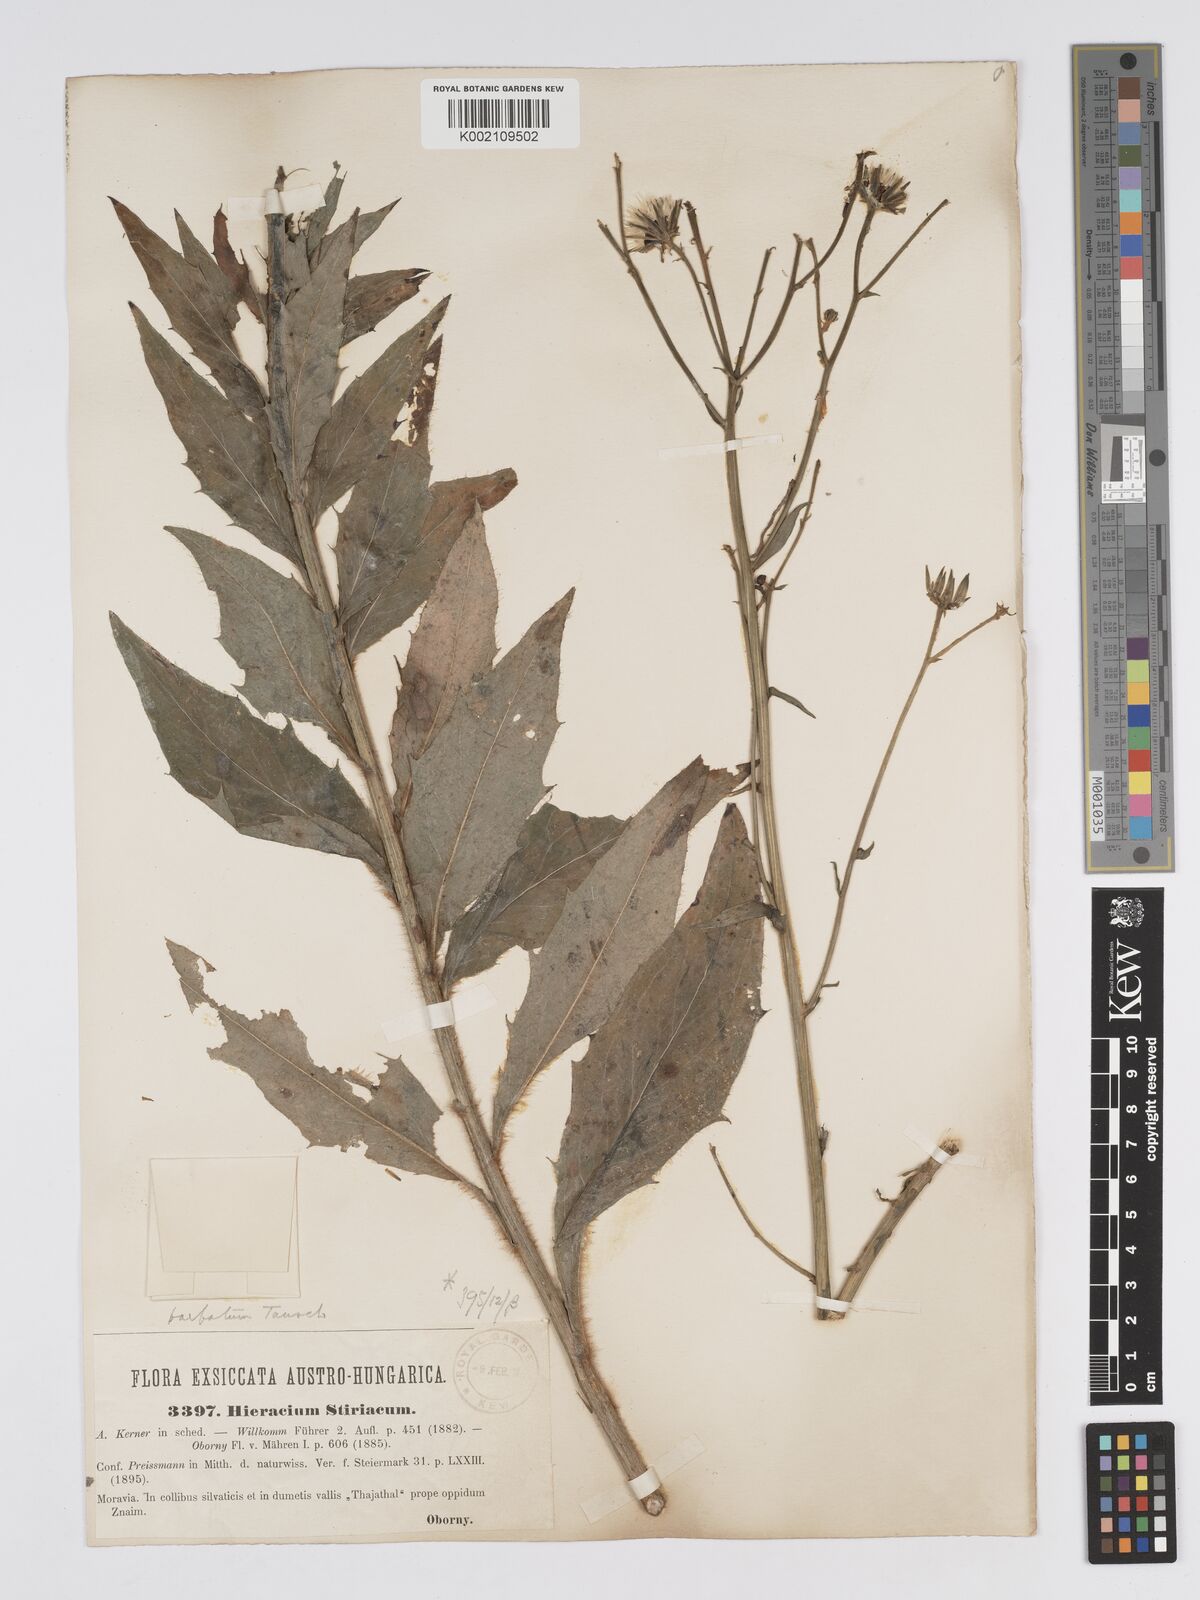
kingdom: Plantae
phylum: Tracheophyta
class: Magnoliopsida
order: Asterales
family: Asteraceae
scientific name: Asteraceae
